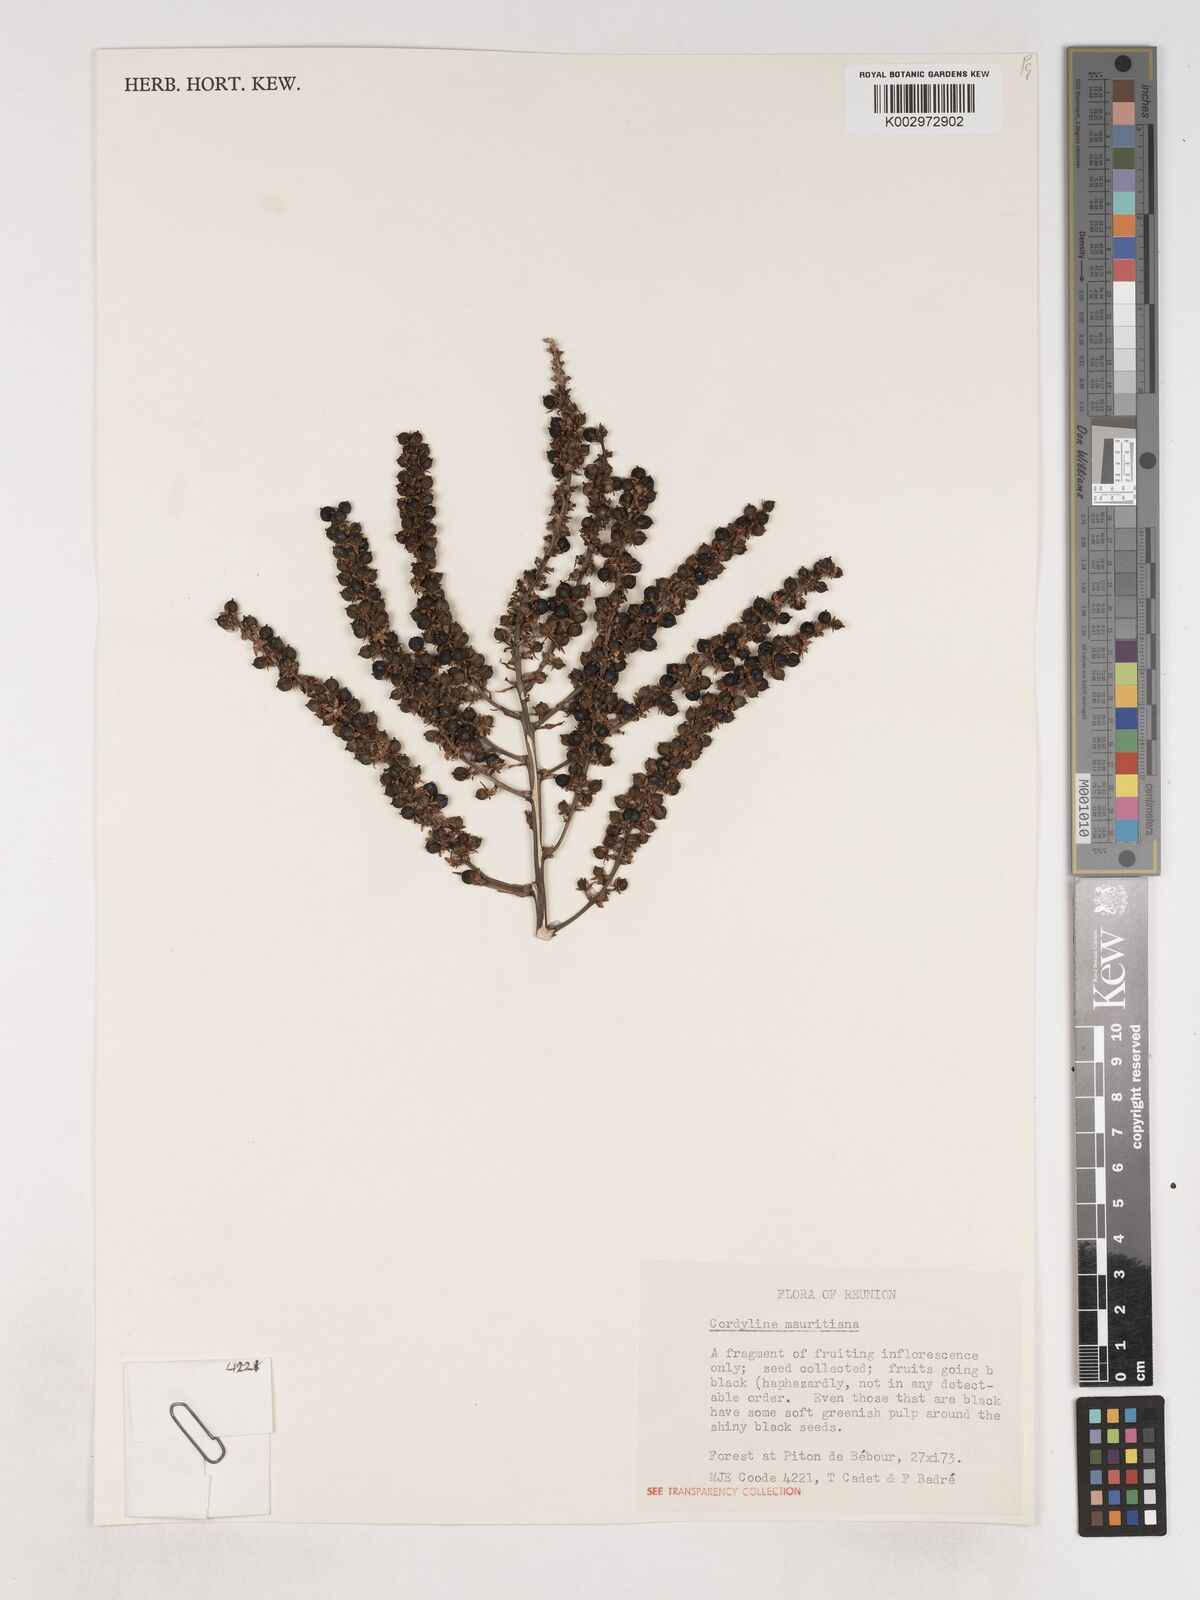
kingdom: Plantae
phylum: Tracheophyta
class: Liliopsida
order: Asparagales
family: Asparagaceae
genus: Cordyline
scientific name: Cordyline mauritiana
